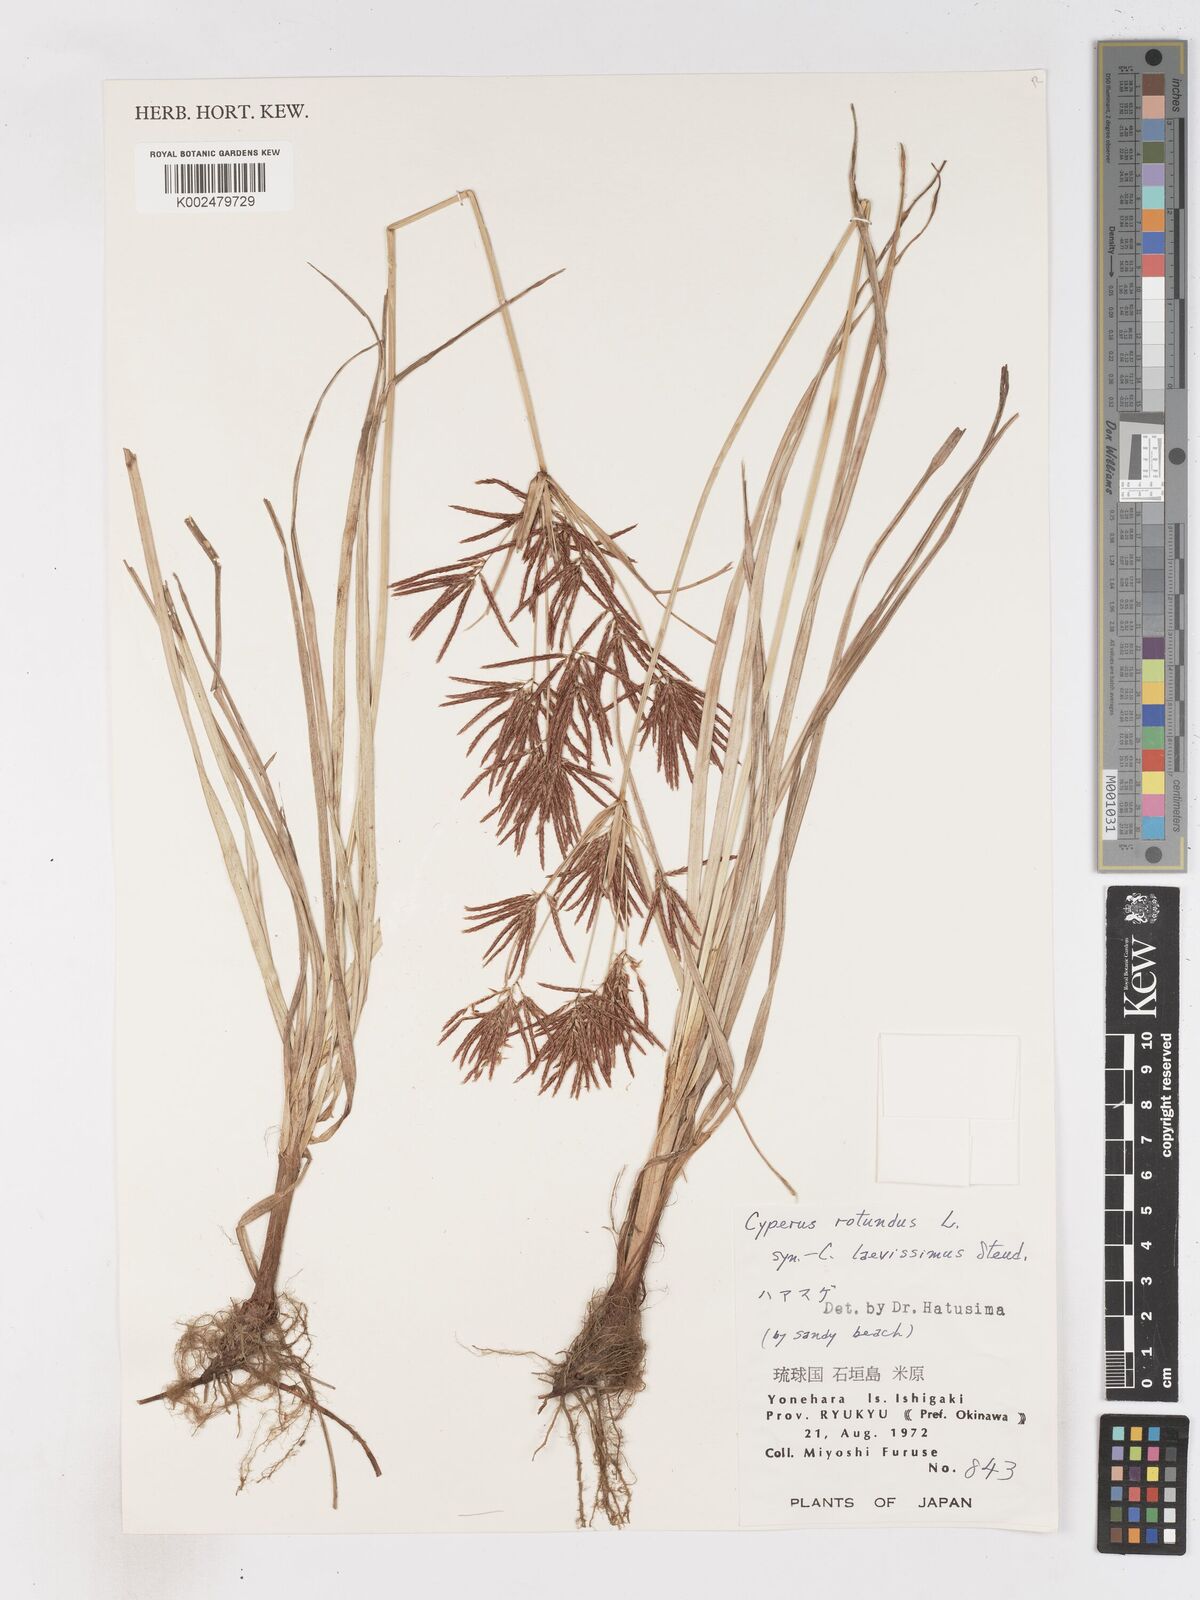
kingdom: Plantae
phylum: Tracheophyta
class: Liliopsida
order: Poales
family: Cyperaceae
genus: Cyperus
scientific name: Cyperus rotundus
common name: Nutgrass
